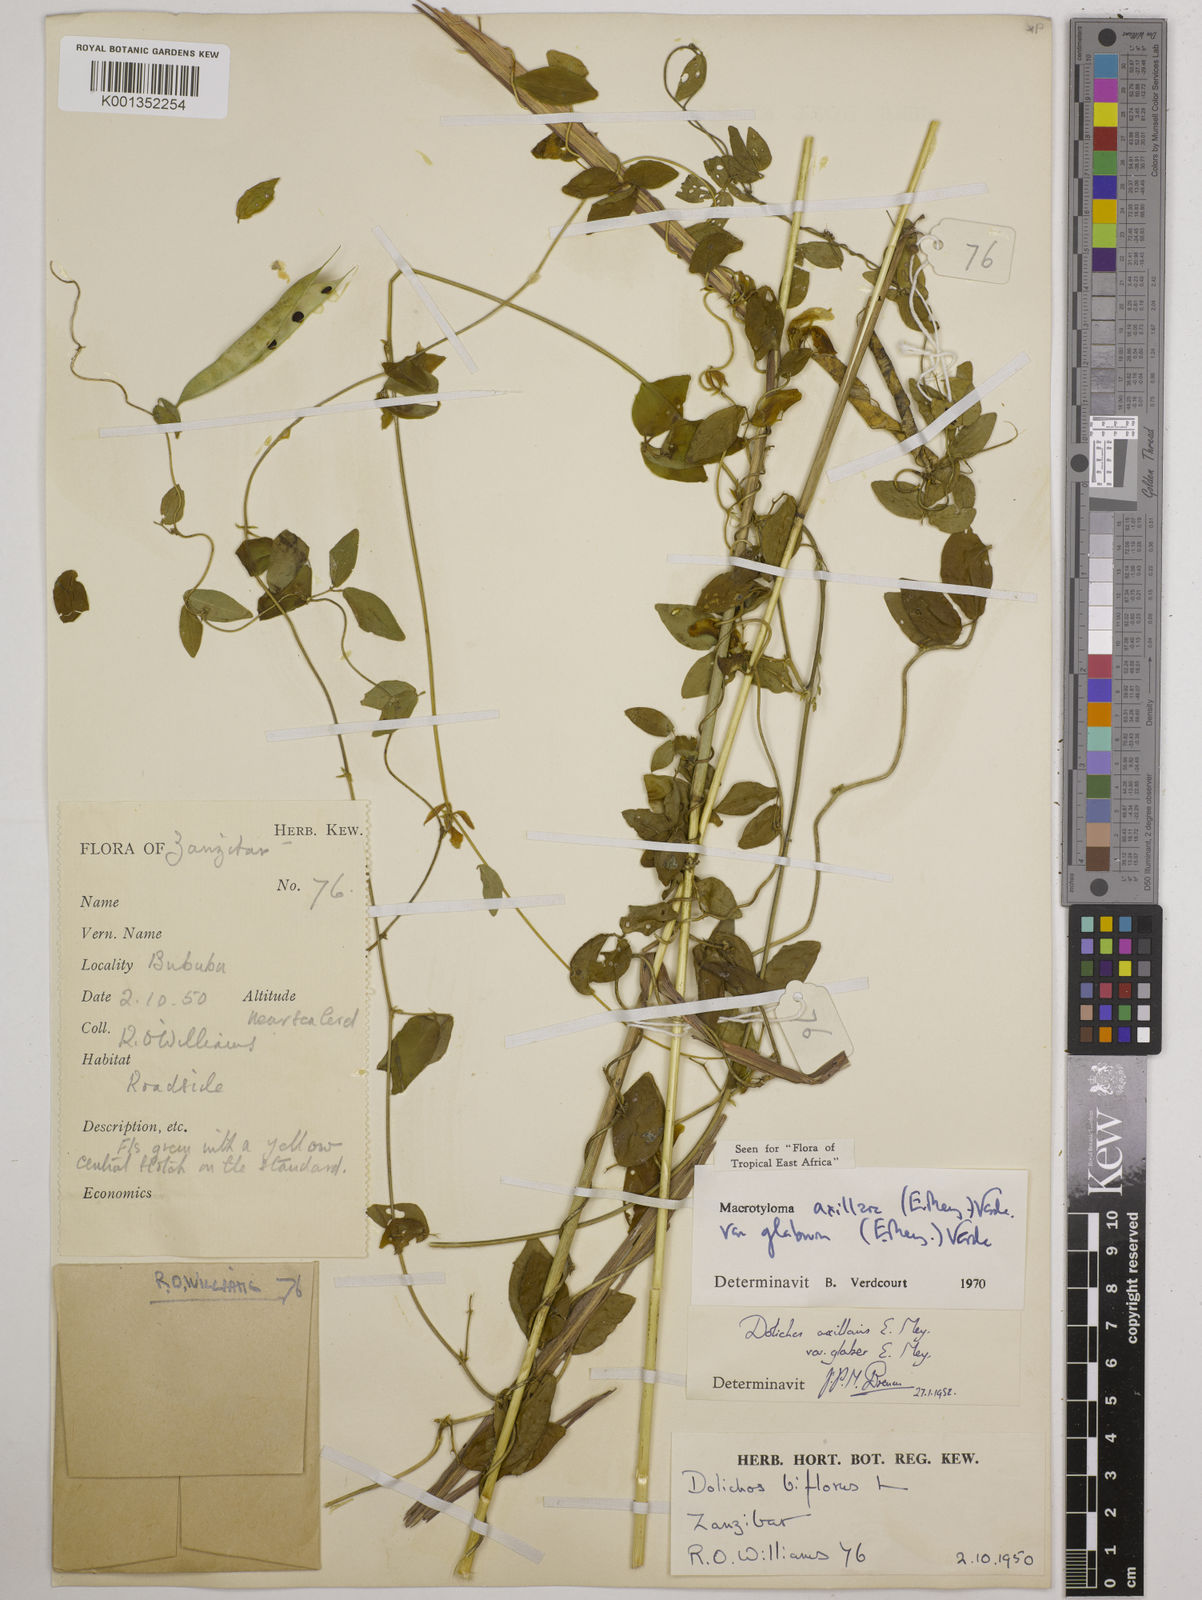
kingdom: Plantae
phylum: Tracheophyta
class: Magnoliopsida
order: Fabales
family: Fabaceae
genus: Macrotyloma
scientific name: Macrotyloma
